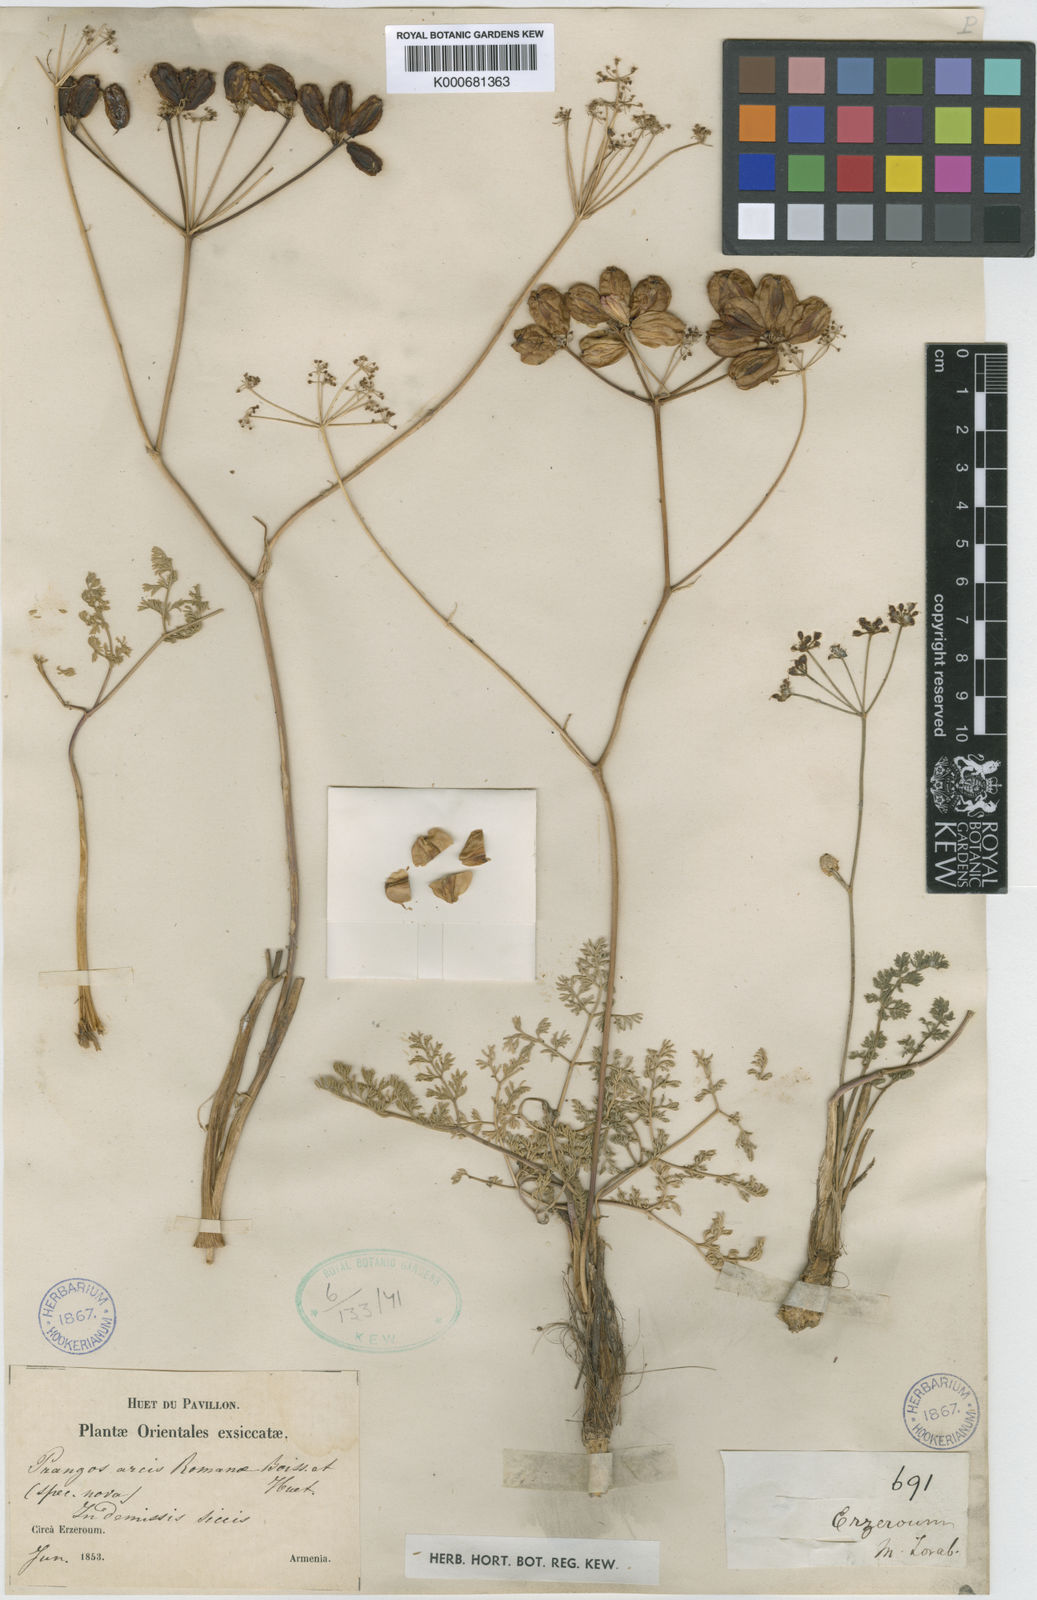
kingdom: Plantae
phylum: Tracheophyta
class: Magnoliopsida
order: Apiales
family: Apiaceae
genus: Prangos
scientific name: Prangos meliocarpoides
